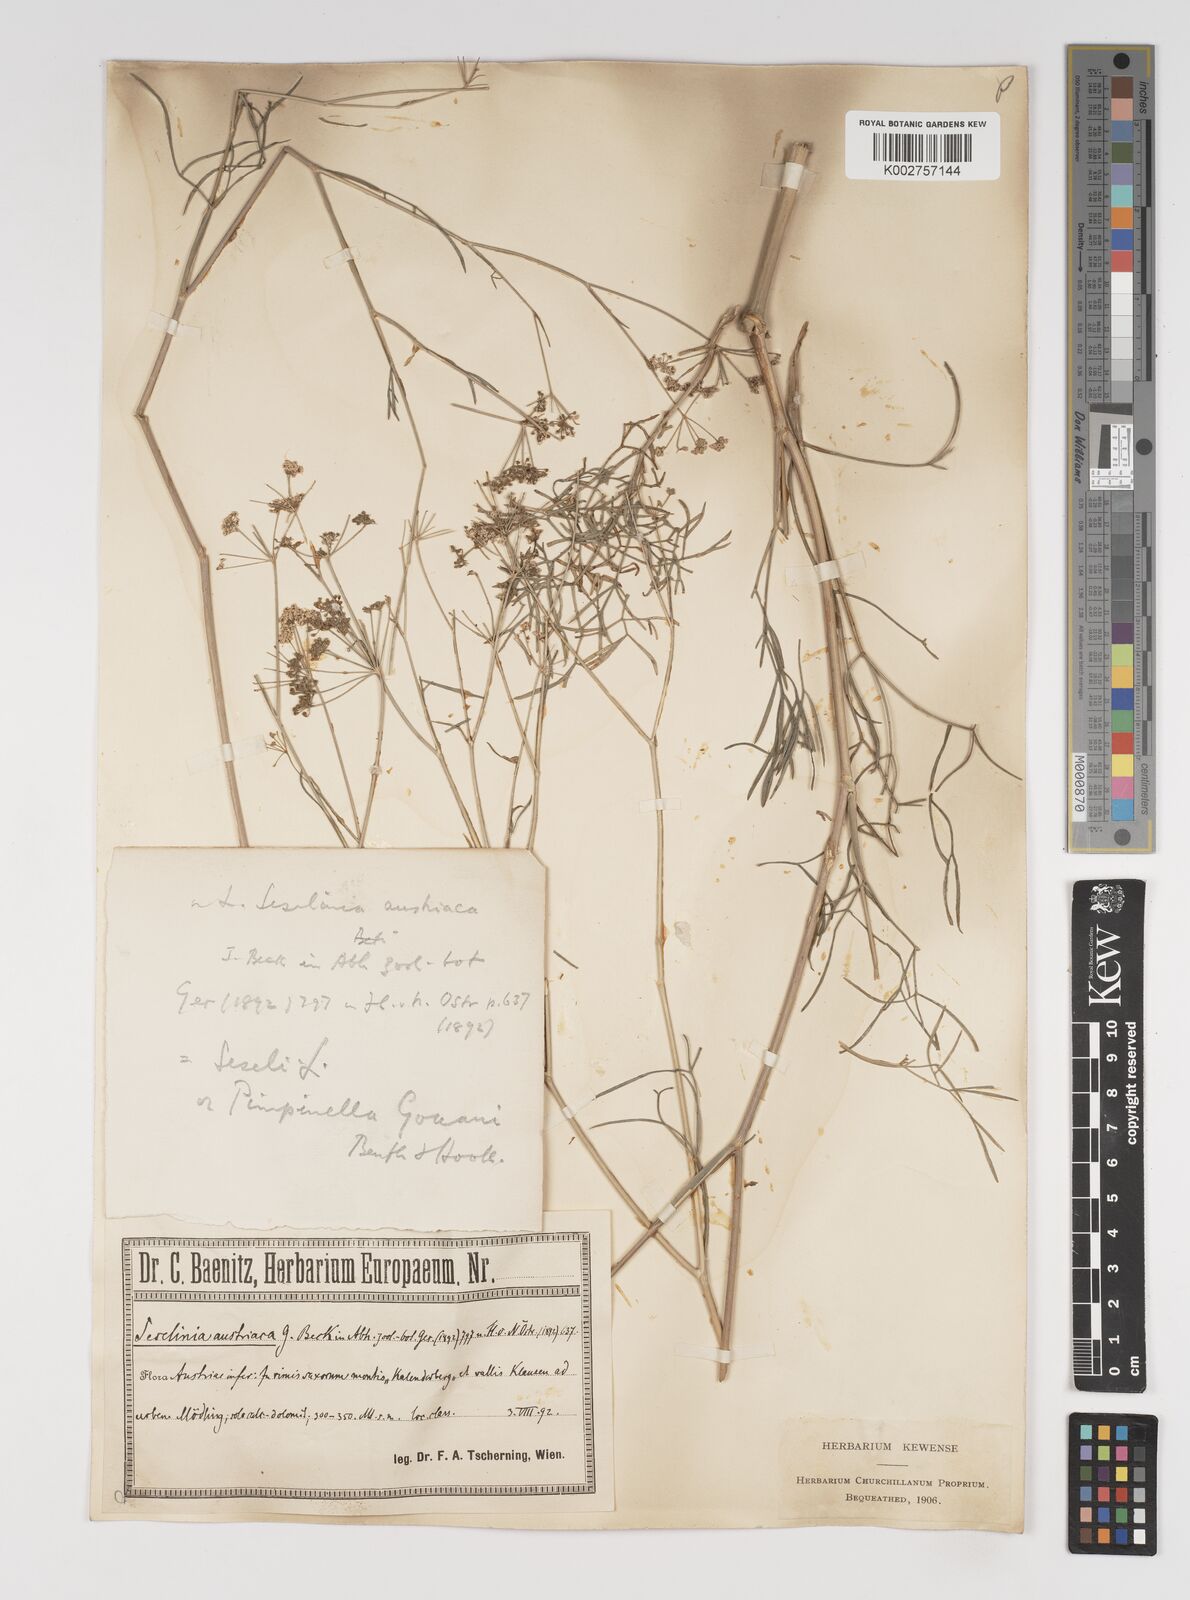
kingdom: Plantae
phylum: Tracheophyta
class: Magnoliopsida
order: Apiales
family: Apiaceae
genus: Seseli
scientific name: Seseli longifolium
